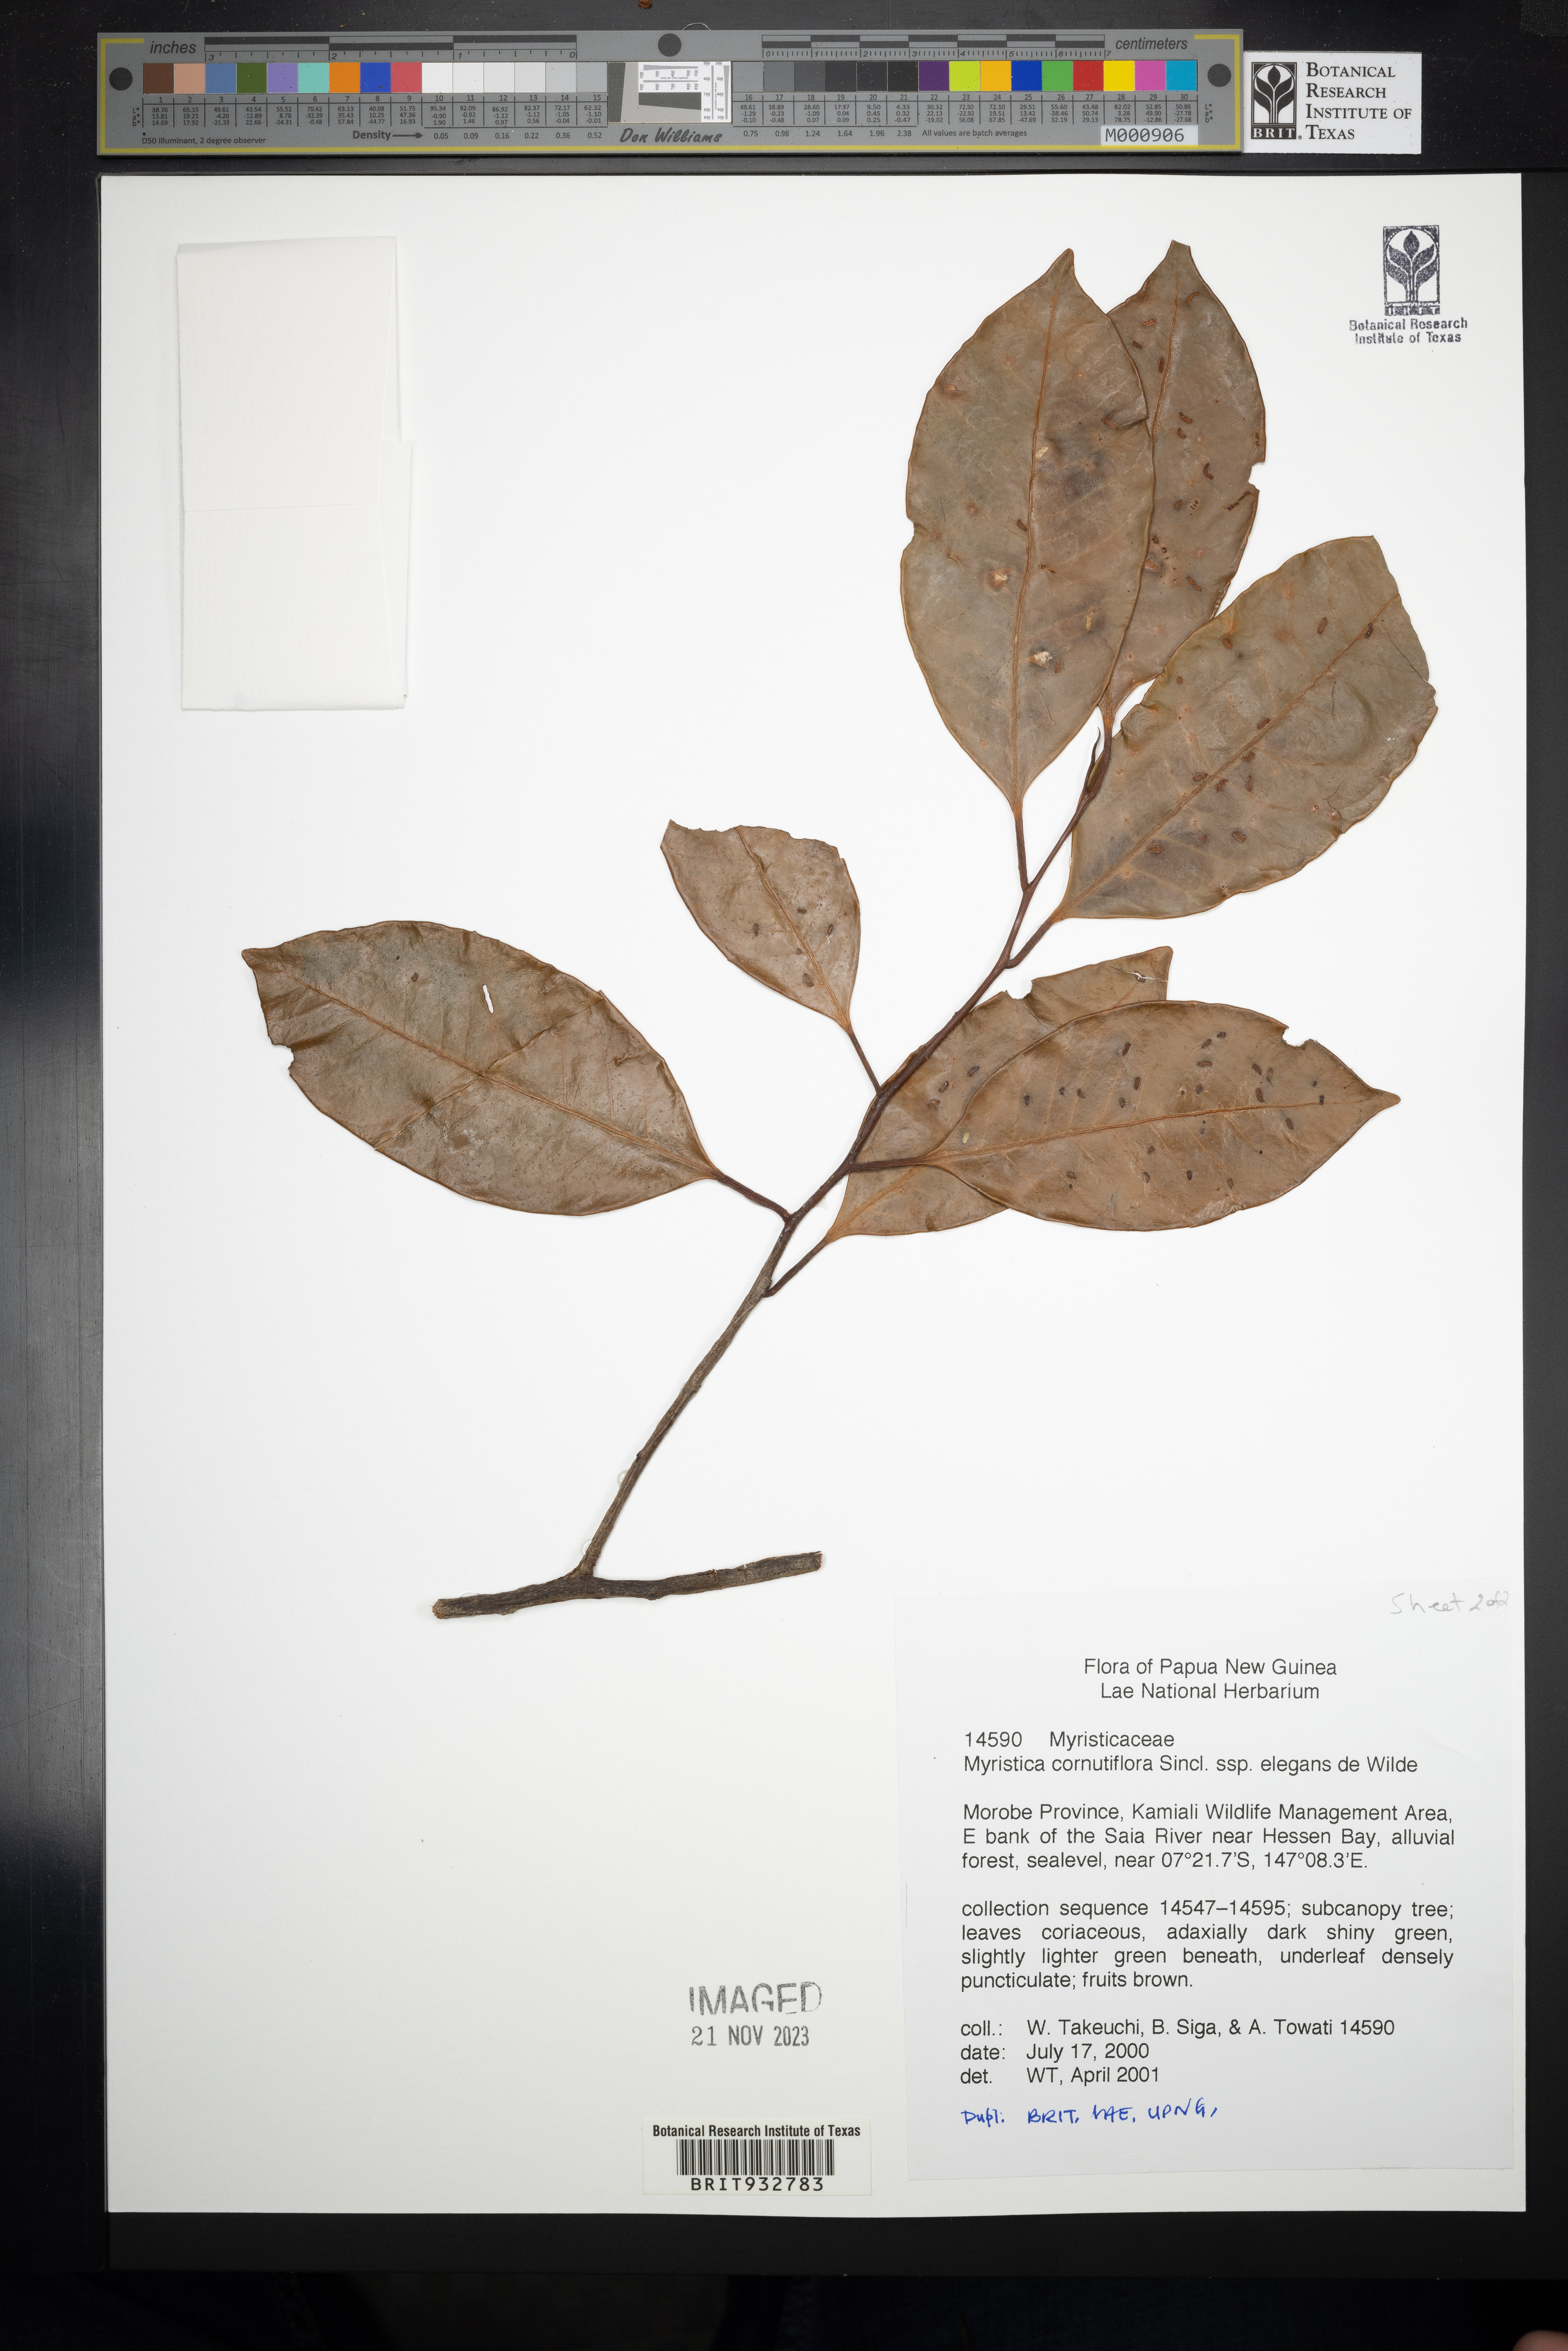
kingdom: Plantae
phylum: Tracheophyta
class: Magnoliopsida
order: Magnoliales
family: Myristicaceae
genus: Myristica
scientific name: Myristica
